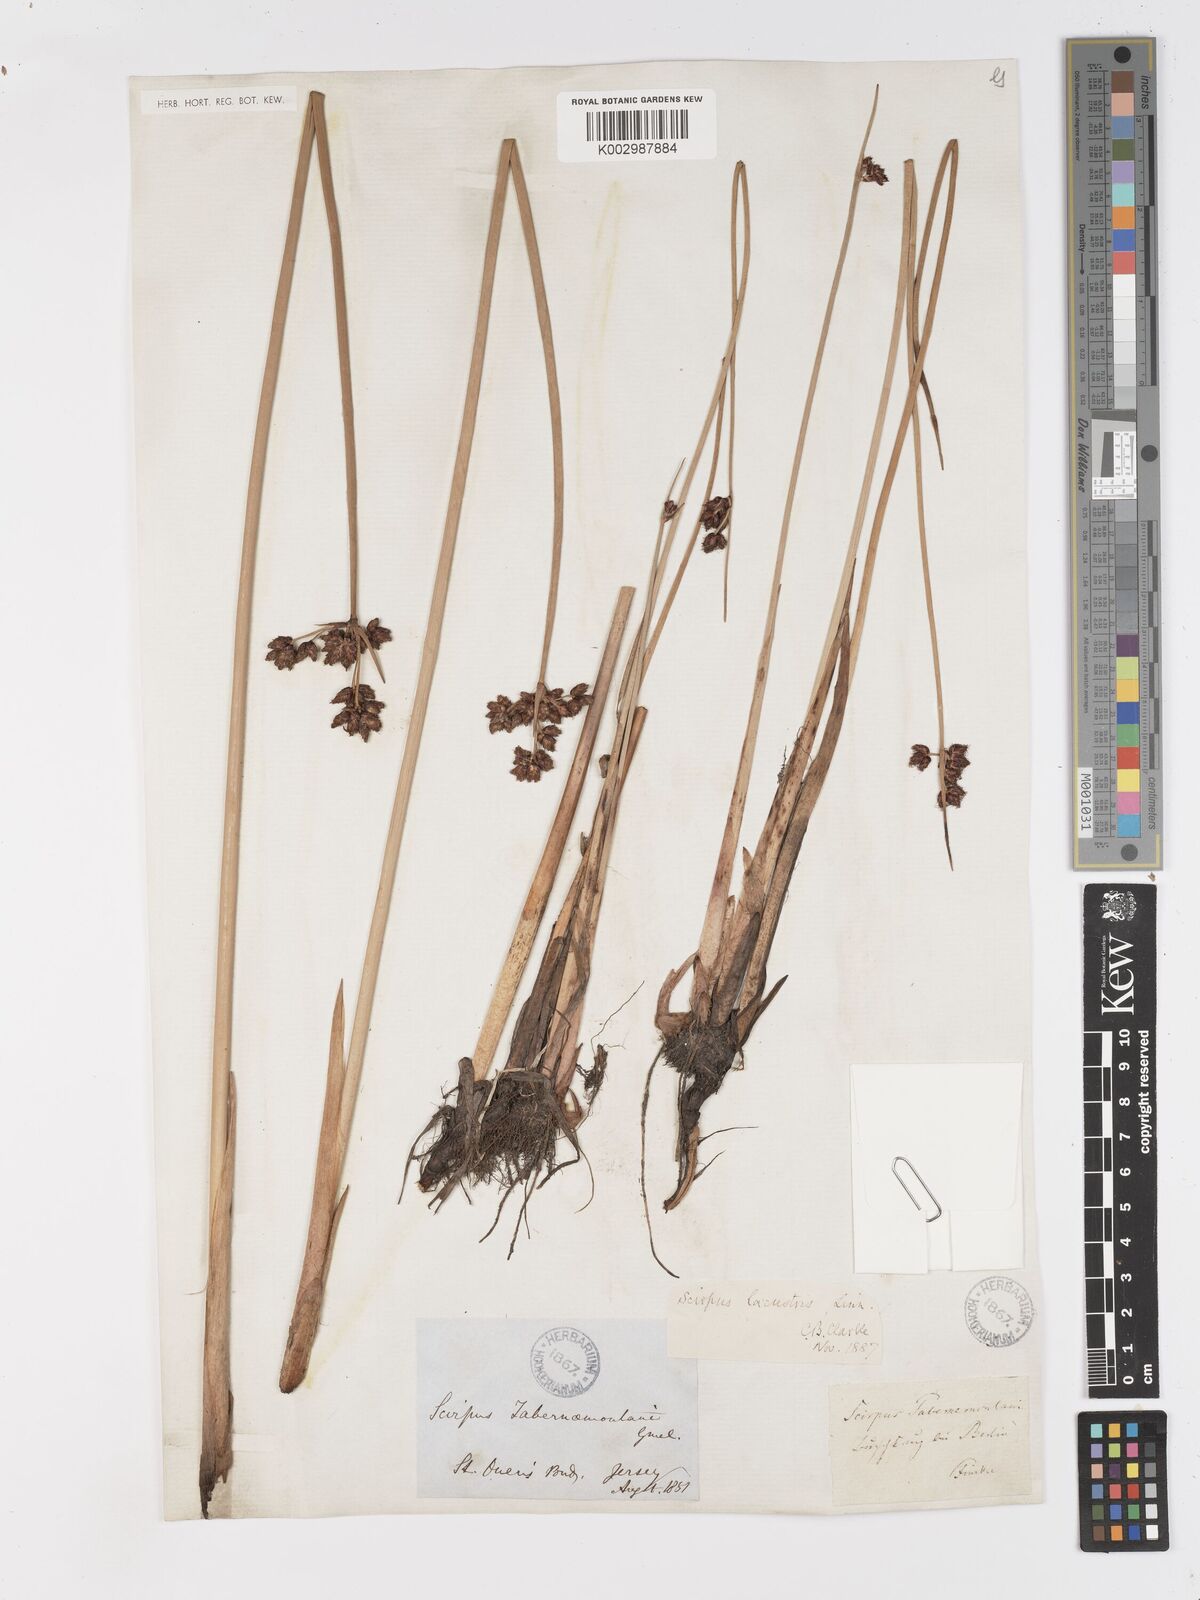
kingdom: Plantae
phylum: Tracheophyta
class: Liliopsida
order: Poales
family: Cyperaceae
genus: Schoenoplectus
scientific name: Schoenoplectus tabernaemontani
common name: Grey club-rush
